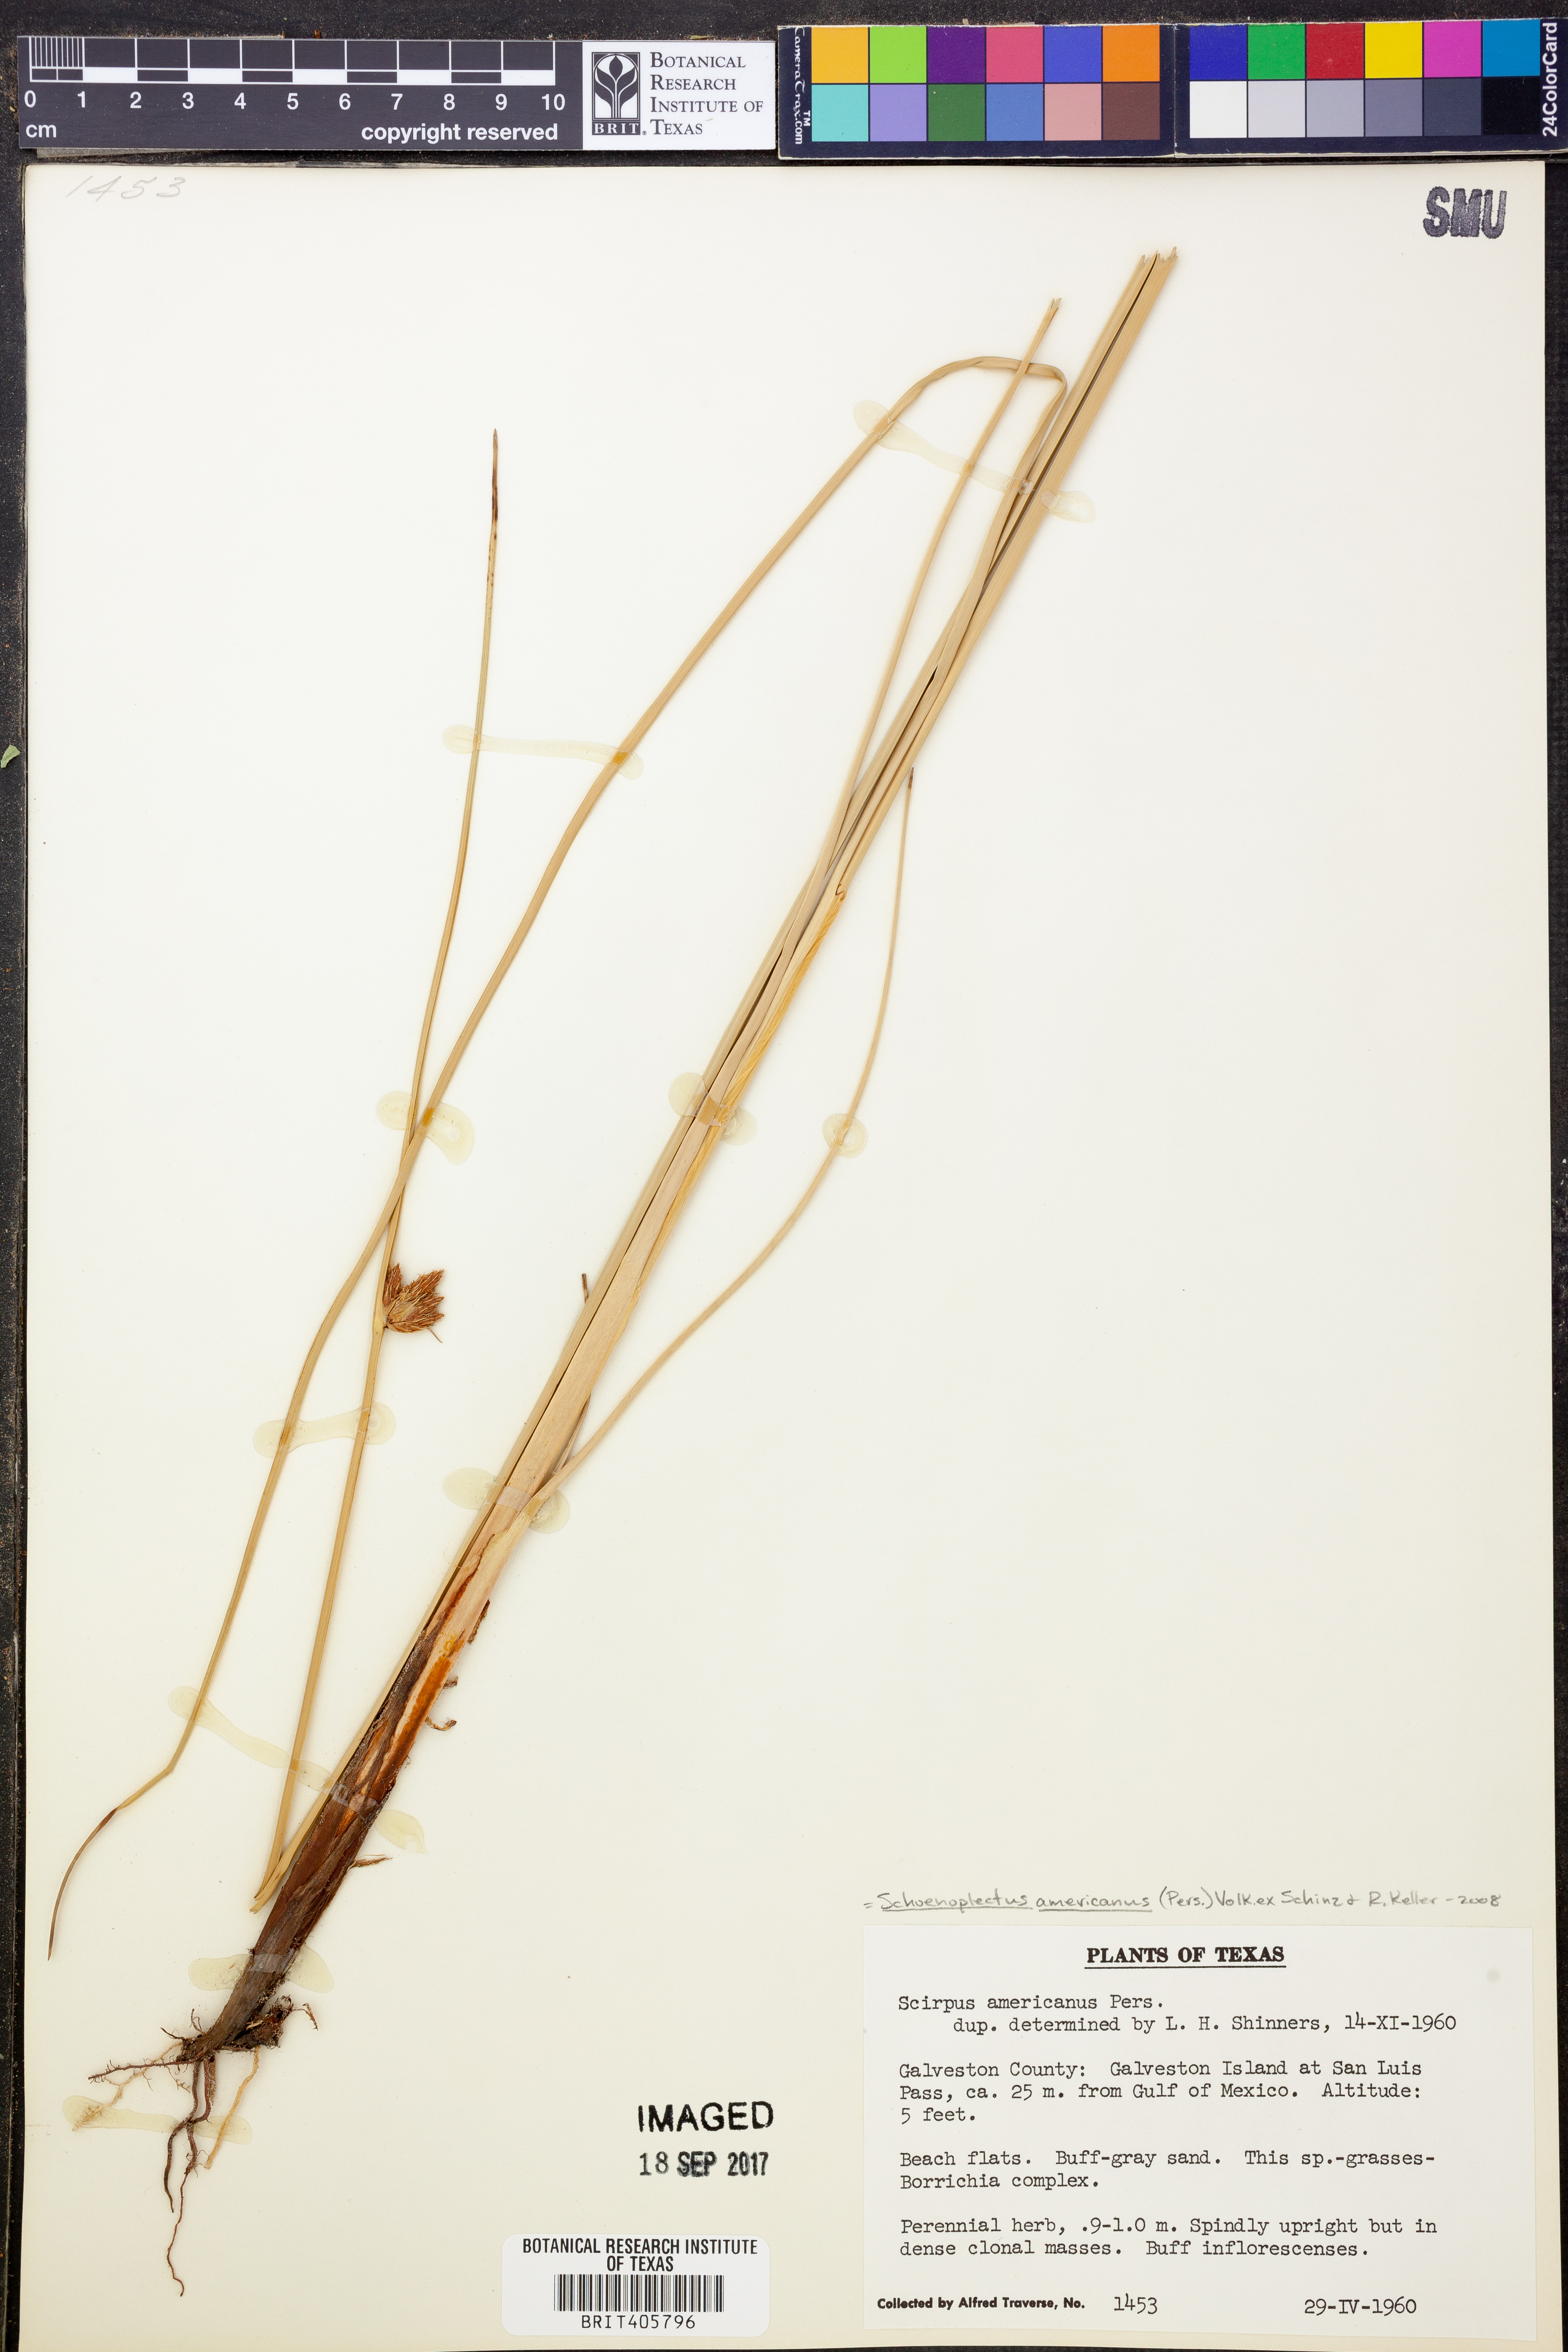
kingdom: Plantae
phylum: Tracheophyta
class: Liliopsida
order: Poales
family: Cyperaceae
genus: Schoenoplectus
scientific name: Schoenoplectus americanus
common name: American three-square bulrush
